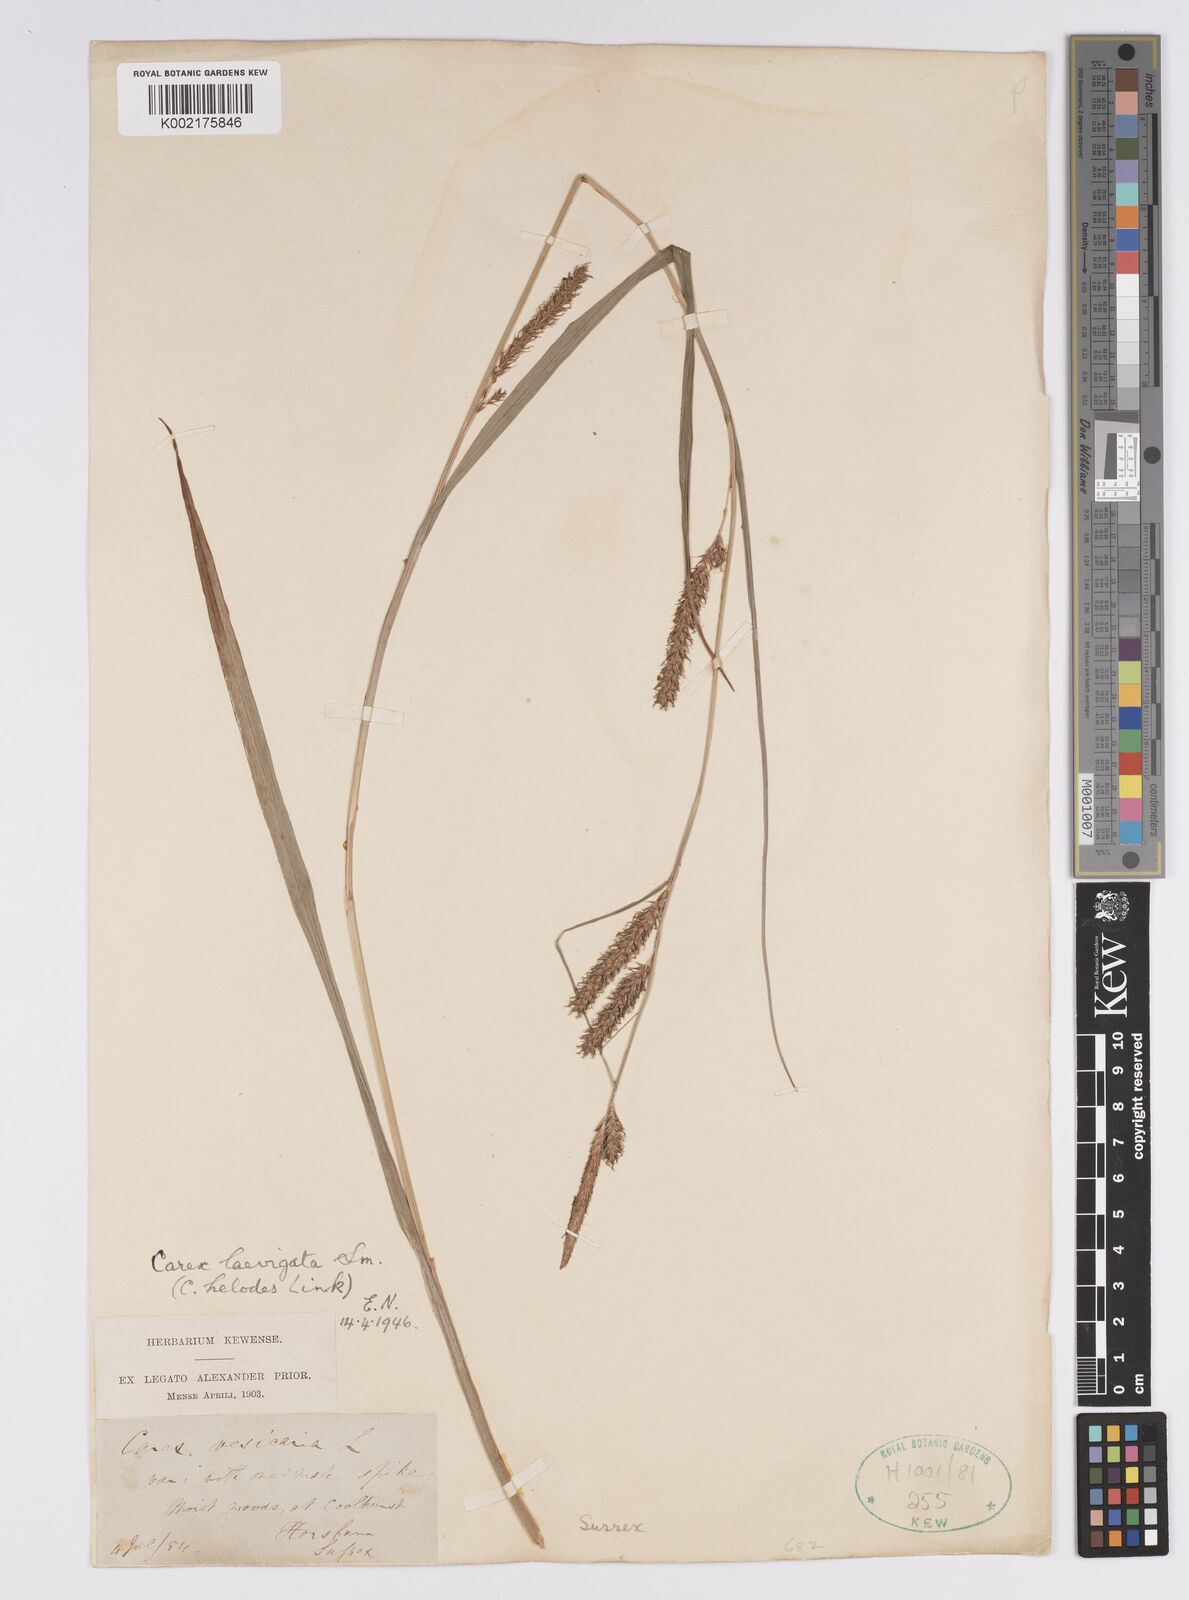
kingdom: Plantae
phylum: Tracheophyta
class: Liliopsida
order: Poales
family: Cyperaceae
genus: Carex
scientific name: Carex laevigata
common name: Smooth-stalked sedge
